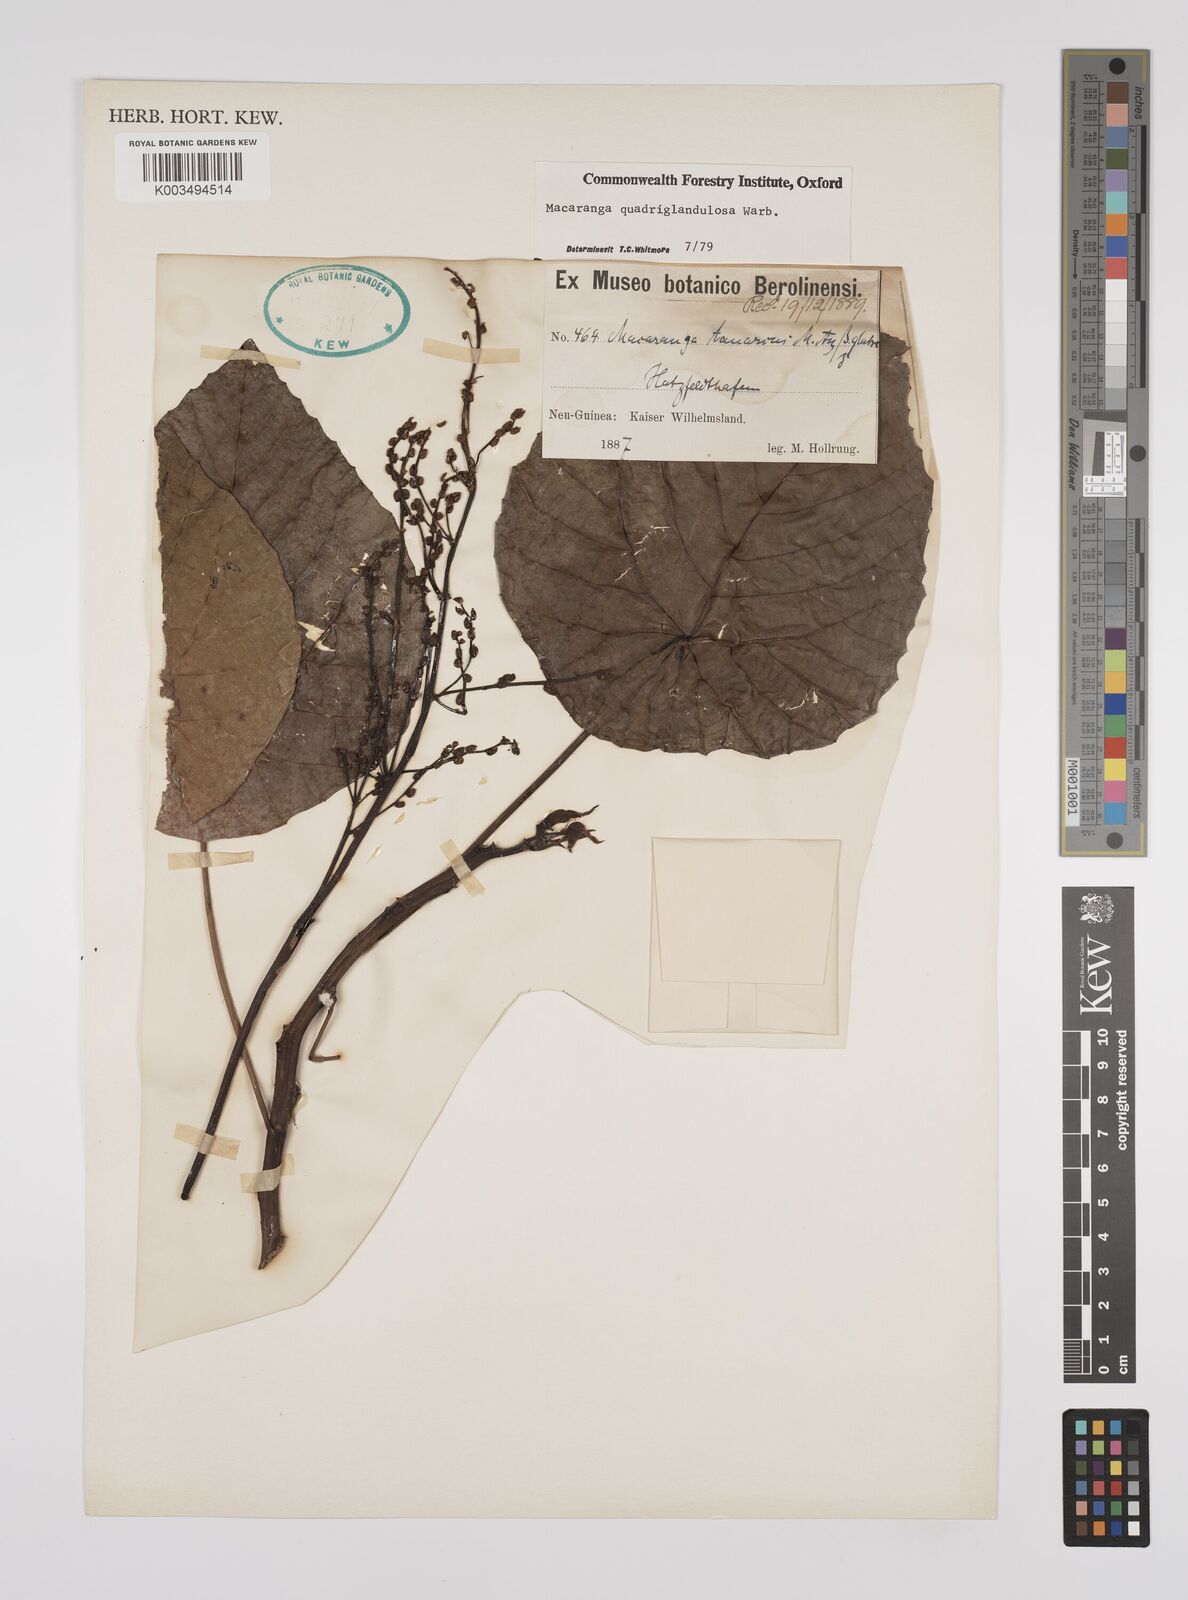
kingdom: Plantae
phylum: Tracheophyta
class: Magnoliopsida
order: Malpighiales
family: Euphorbiaceae
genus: Macaranga
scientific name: Macaranga quadriglandulosa
